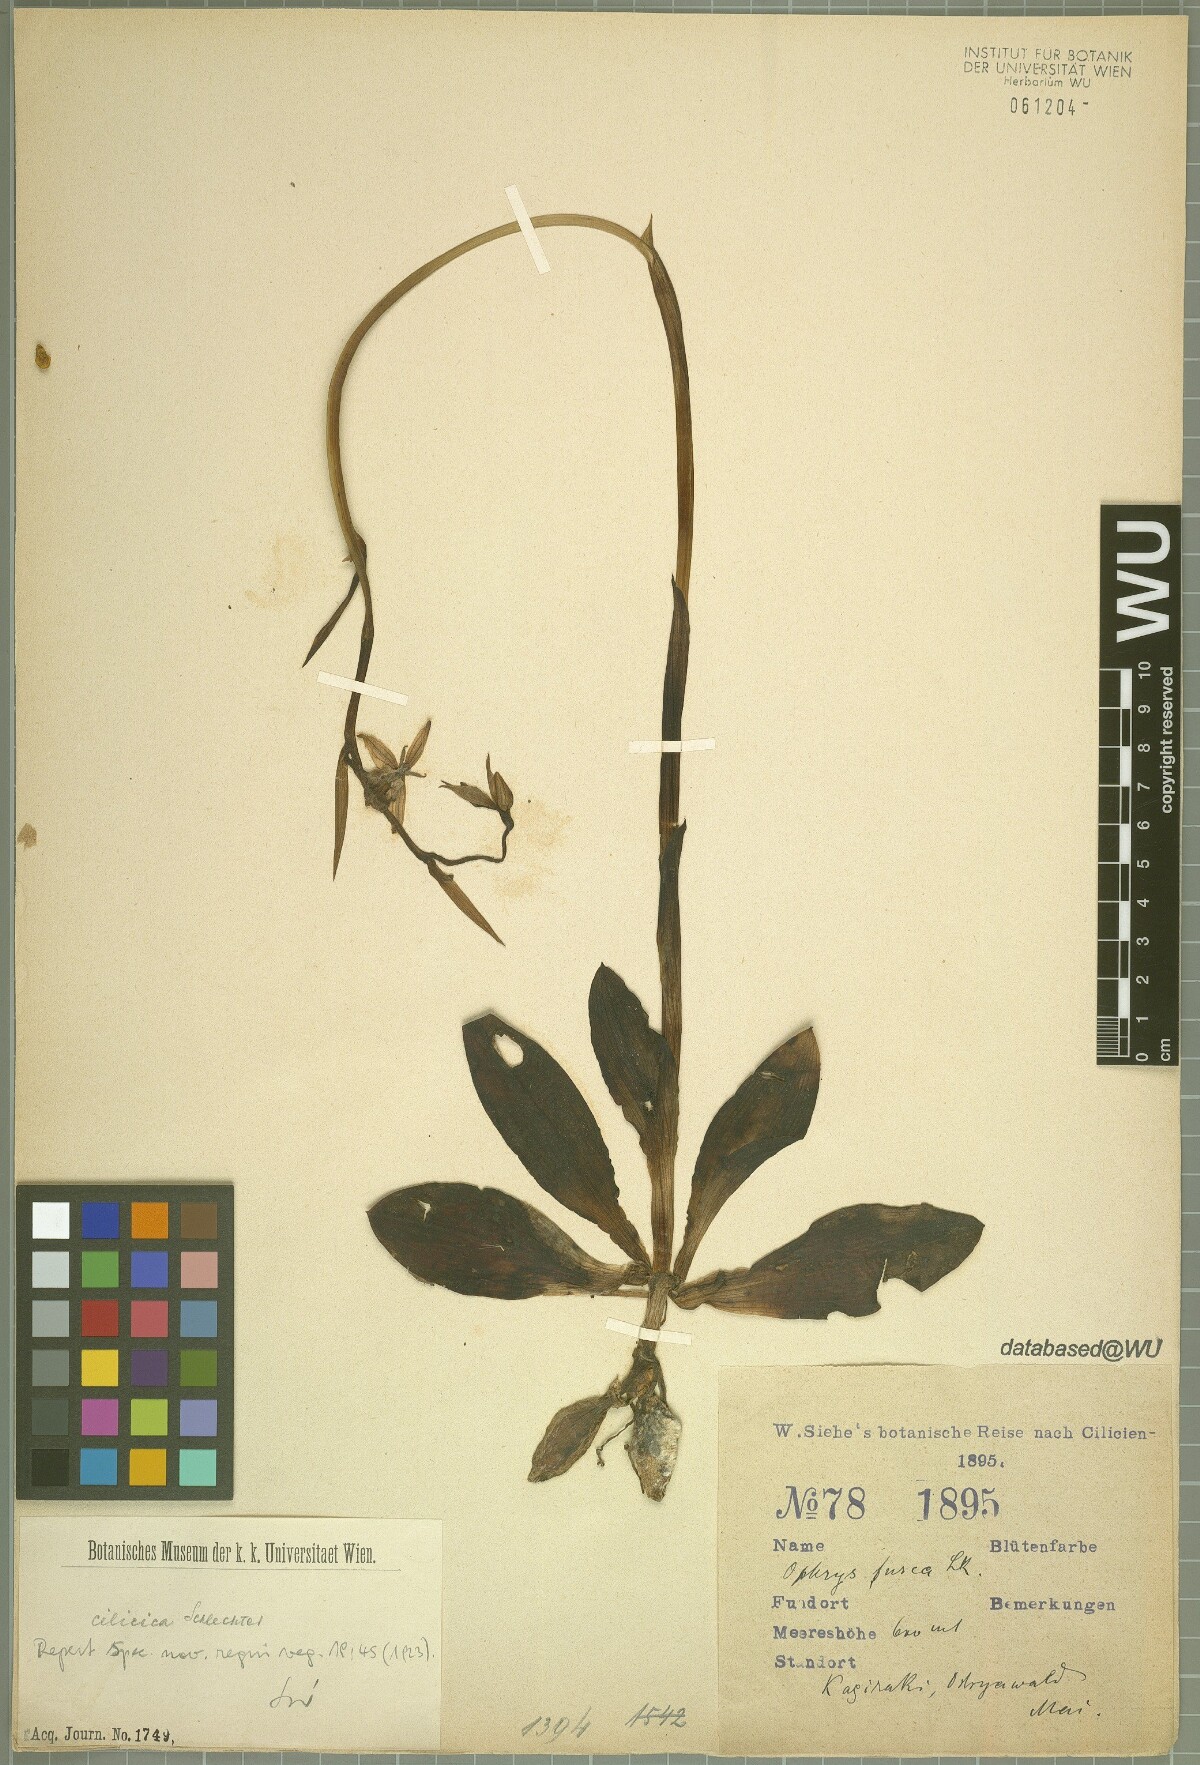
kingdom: Plantae
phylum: Tracheophyta
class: Liliopsida
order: Asparagales
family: Orchidaceae
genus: Ophrys
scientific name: Ophrys cilicica
